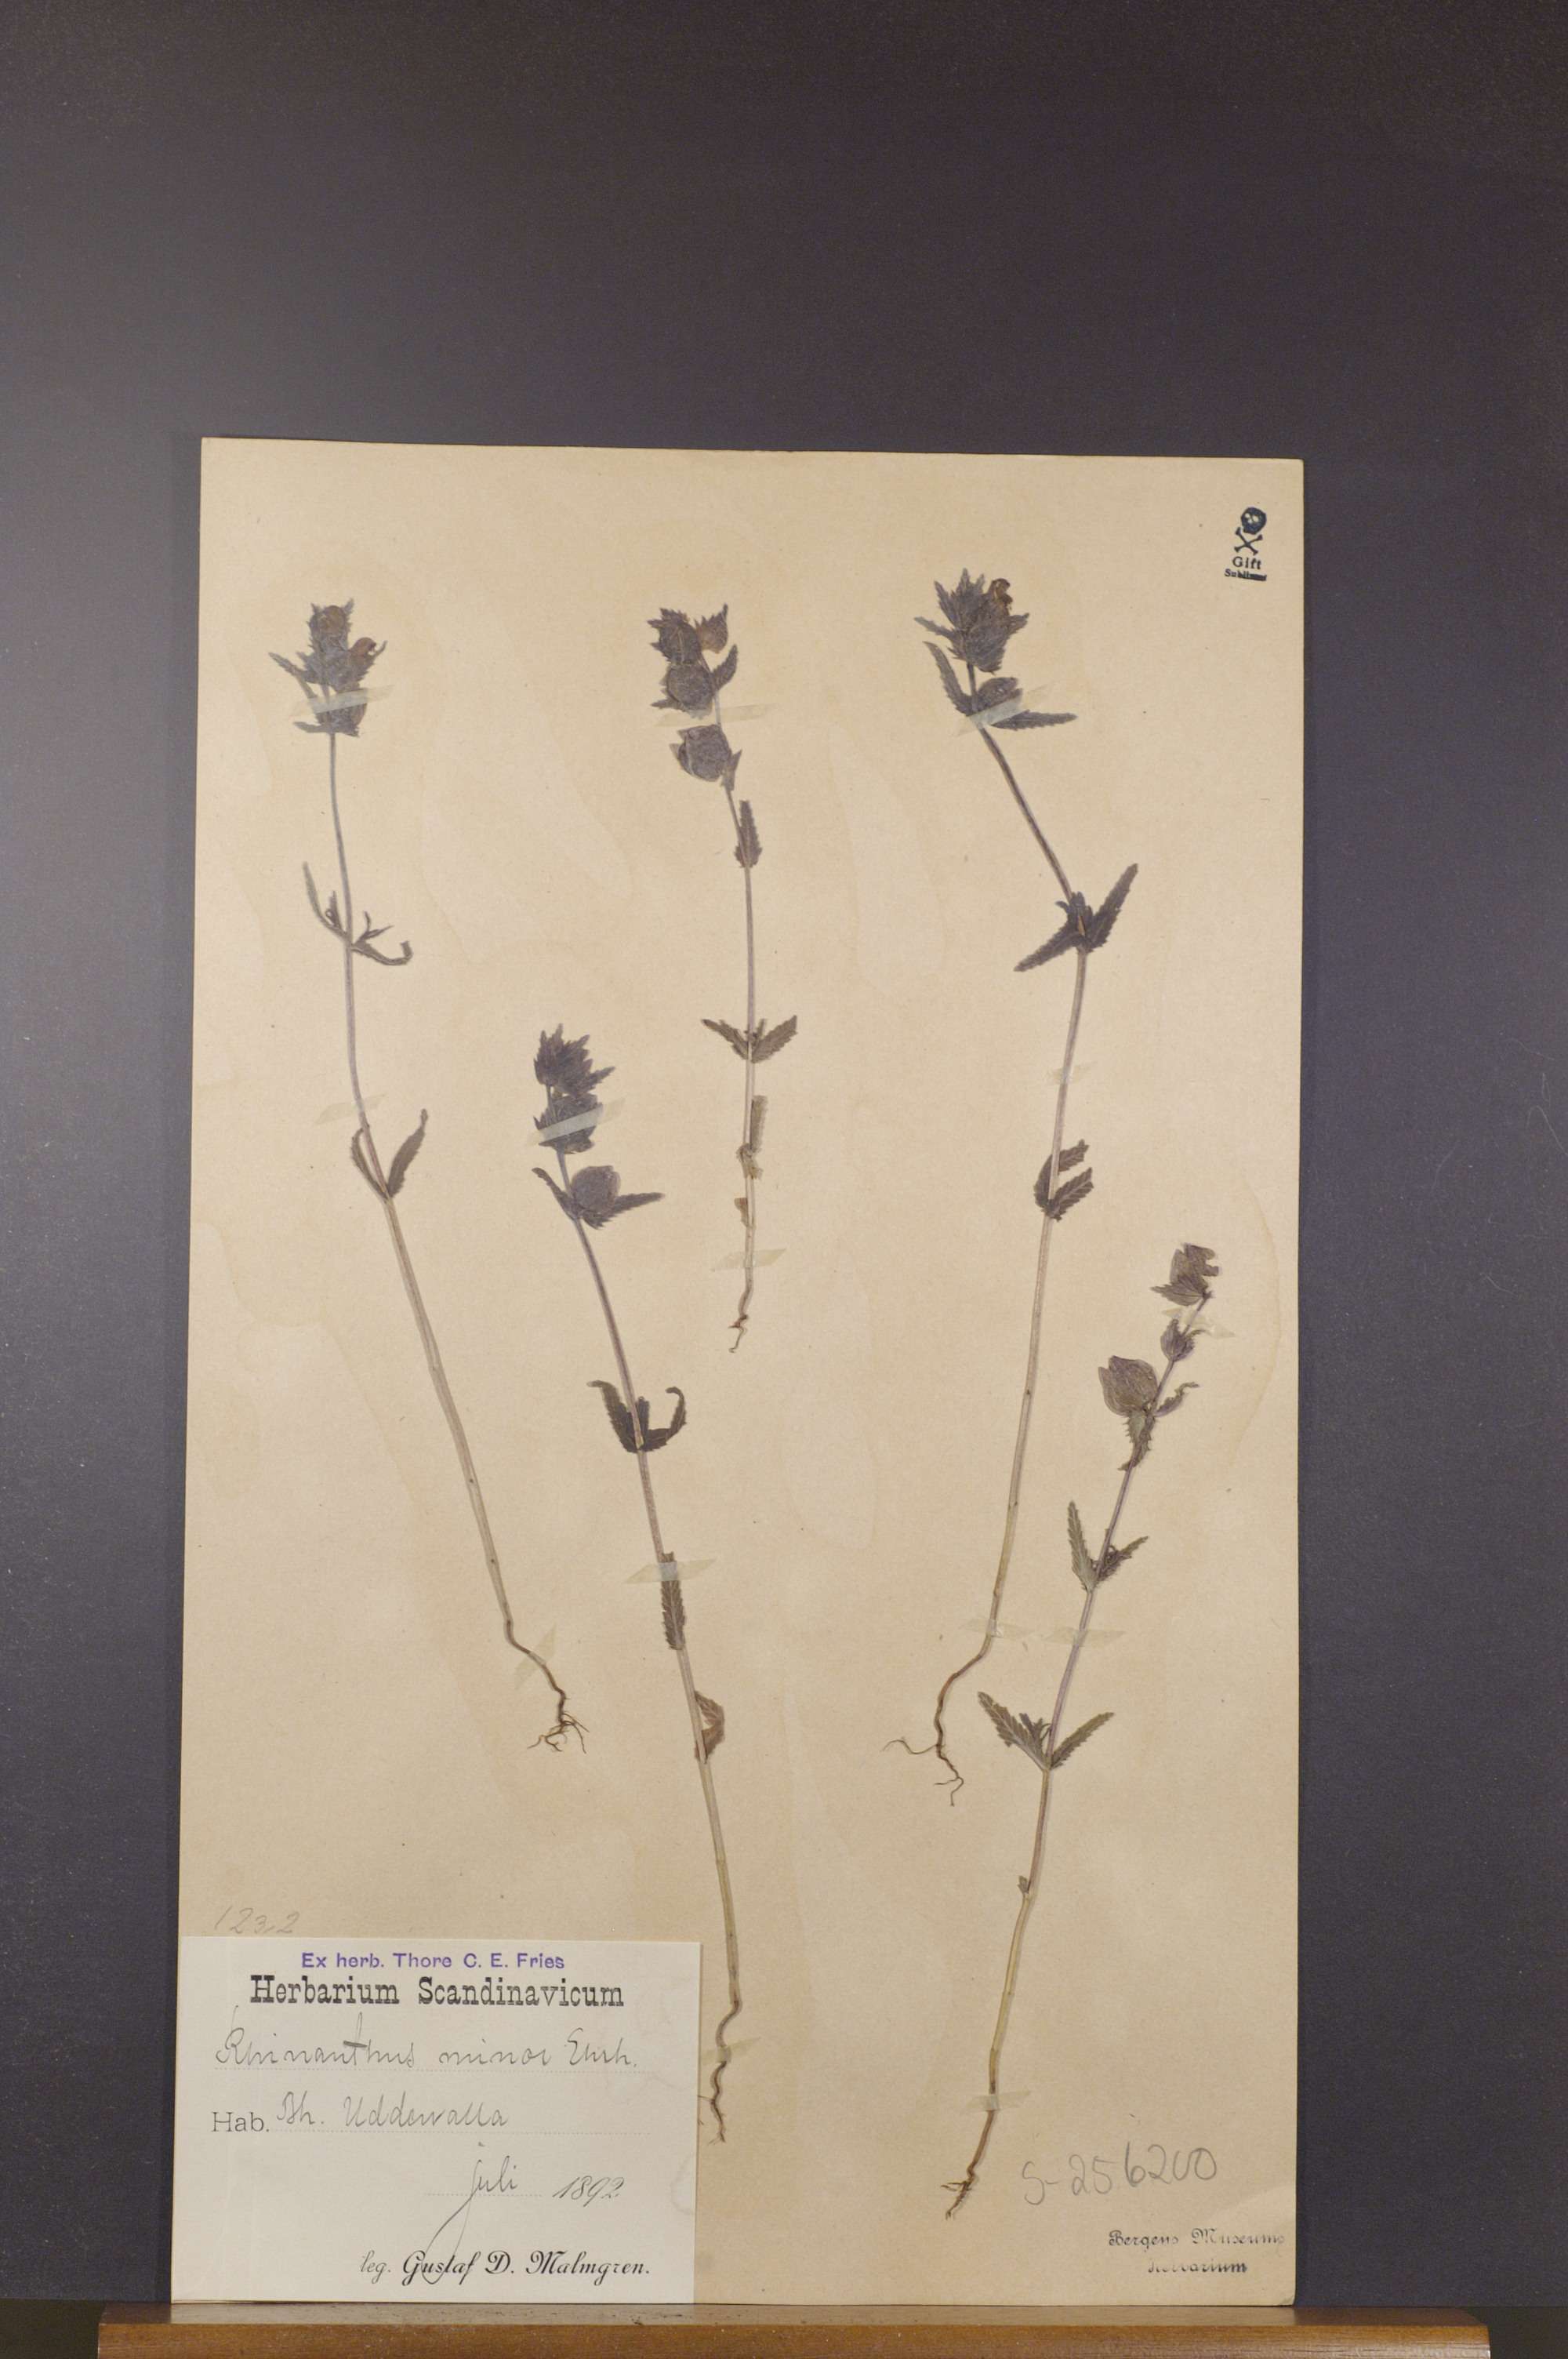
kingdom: Plantae
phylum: Tracheophyta
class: Magnoliopsida
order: Lamiales
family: Orobanchaceae
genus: Rhinanthus
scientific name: Rhinanthus minor
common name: Yellow-rattle
